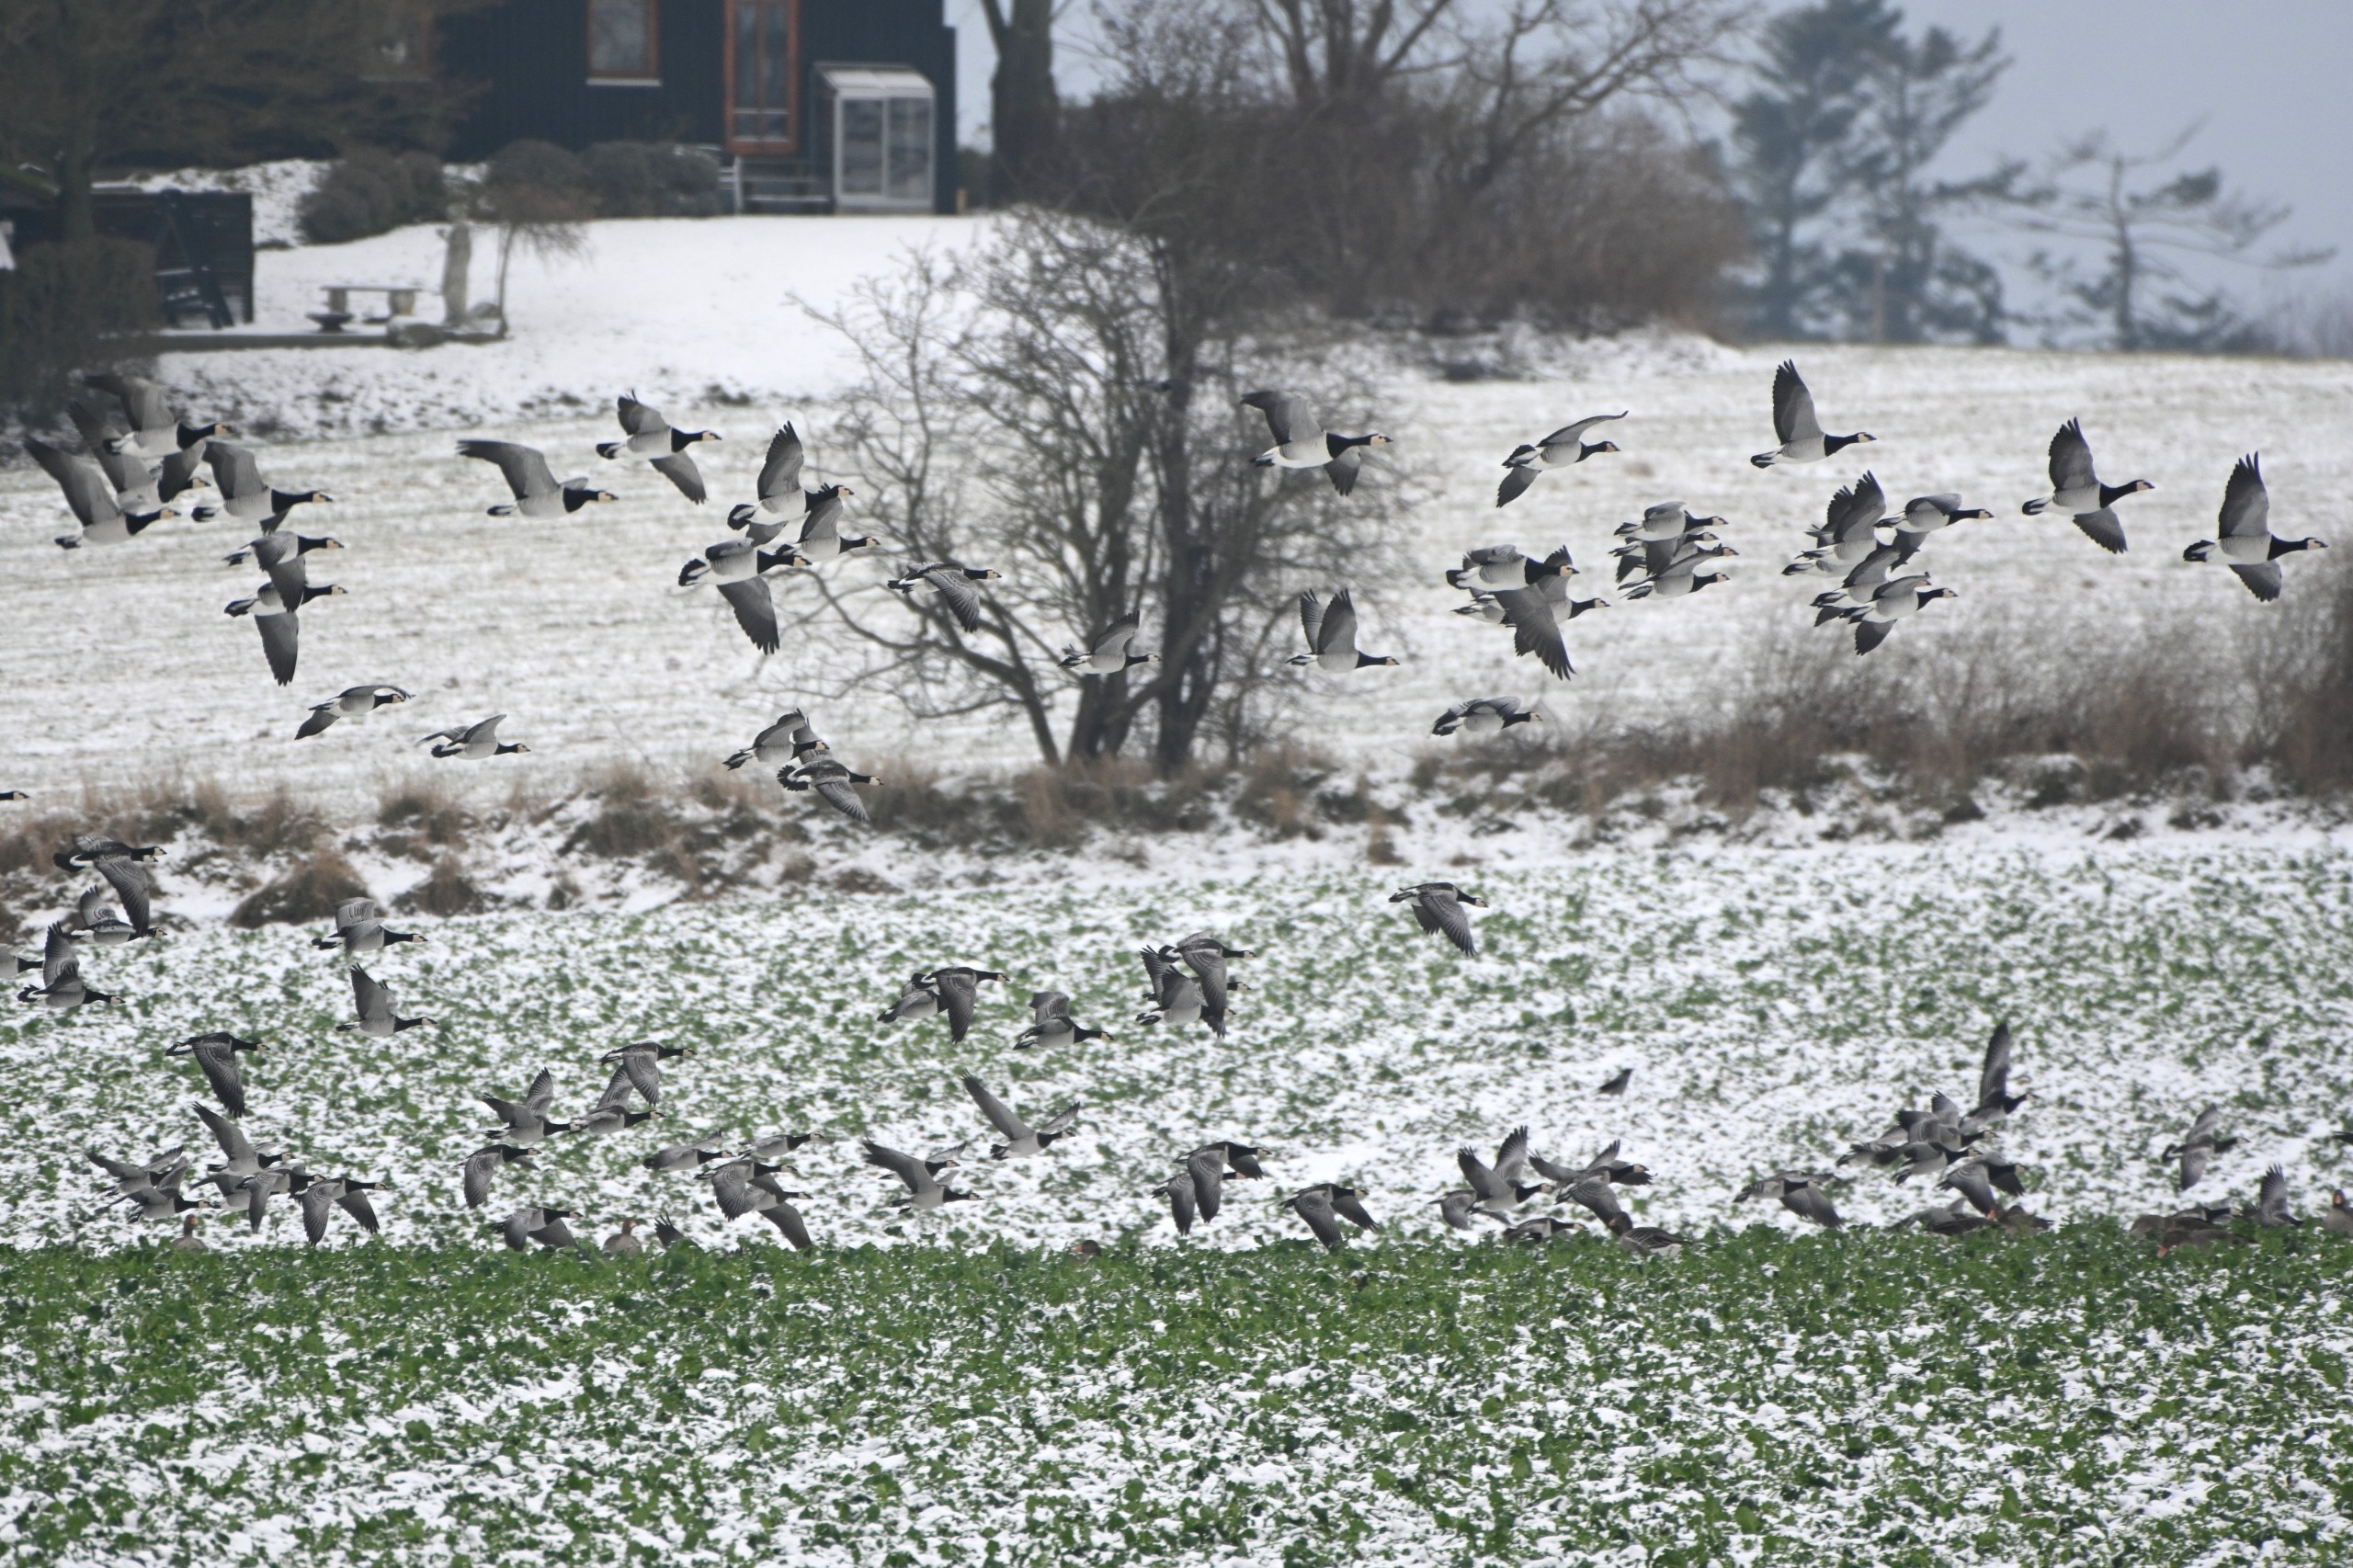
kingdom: Animalia
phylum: Chordata
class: Aves
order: Anseriformes
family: Anatidae
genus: Branta
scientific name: Branta leucopsis
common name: Bramgås
